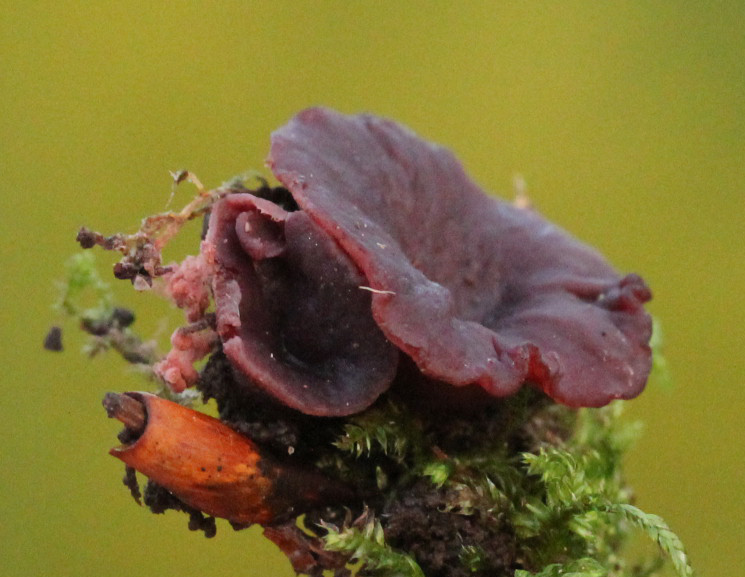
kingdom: Fungi
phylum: Ascomycota
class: Leotiomycetes
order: Helotiales
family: Gelatinodiscaceae
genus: Ascocoryne
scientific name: Ascocoryne cylichnium
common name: stor sejskive
